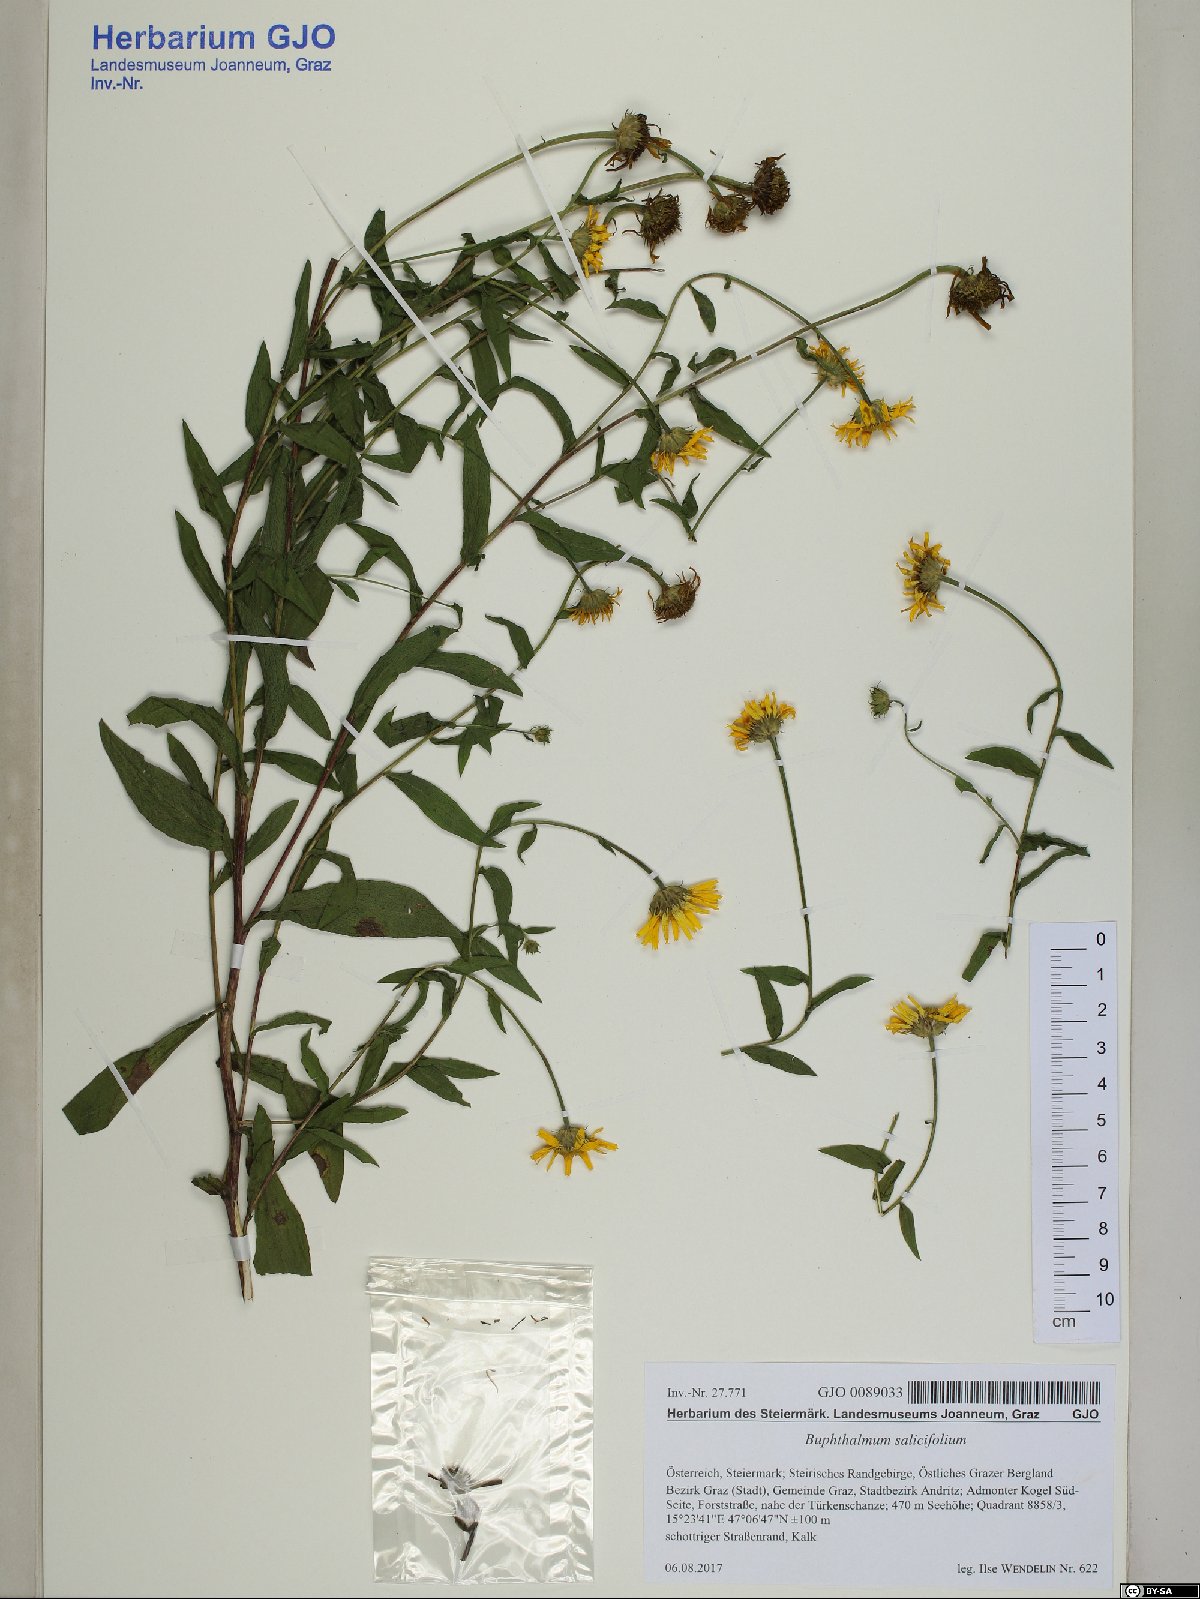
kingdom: Plantae
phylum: Tracheophyta
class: Magnoliopsida
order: Asterales
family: Asteraceae
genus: Buphthalmum
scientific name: Buphthalmum salicifolium
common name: Willow-leaved yellow-oxeye
